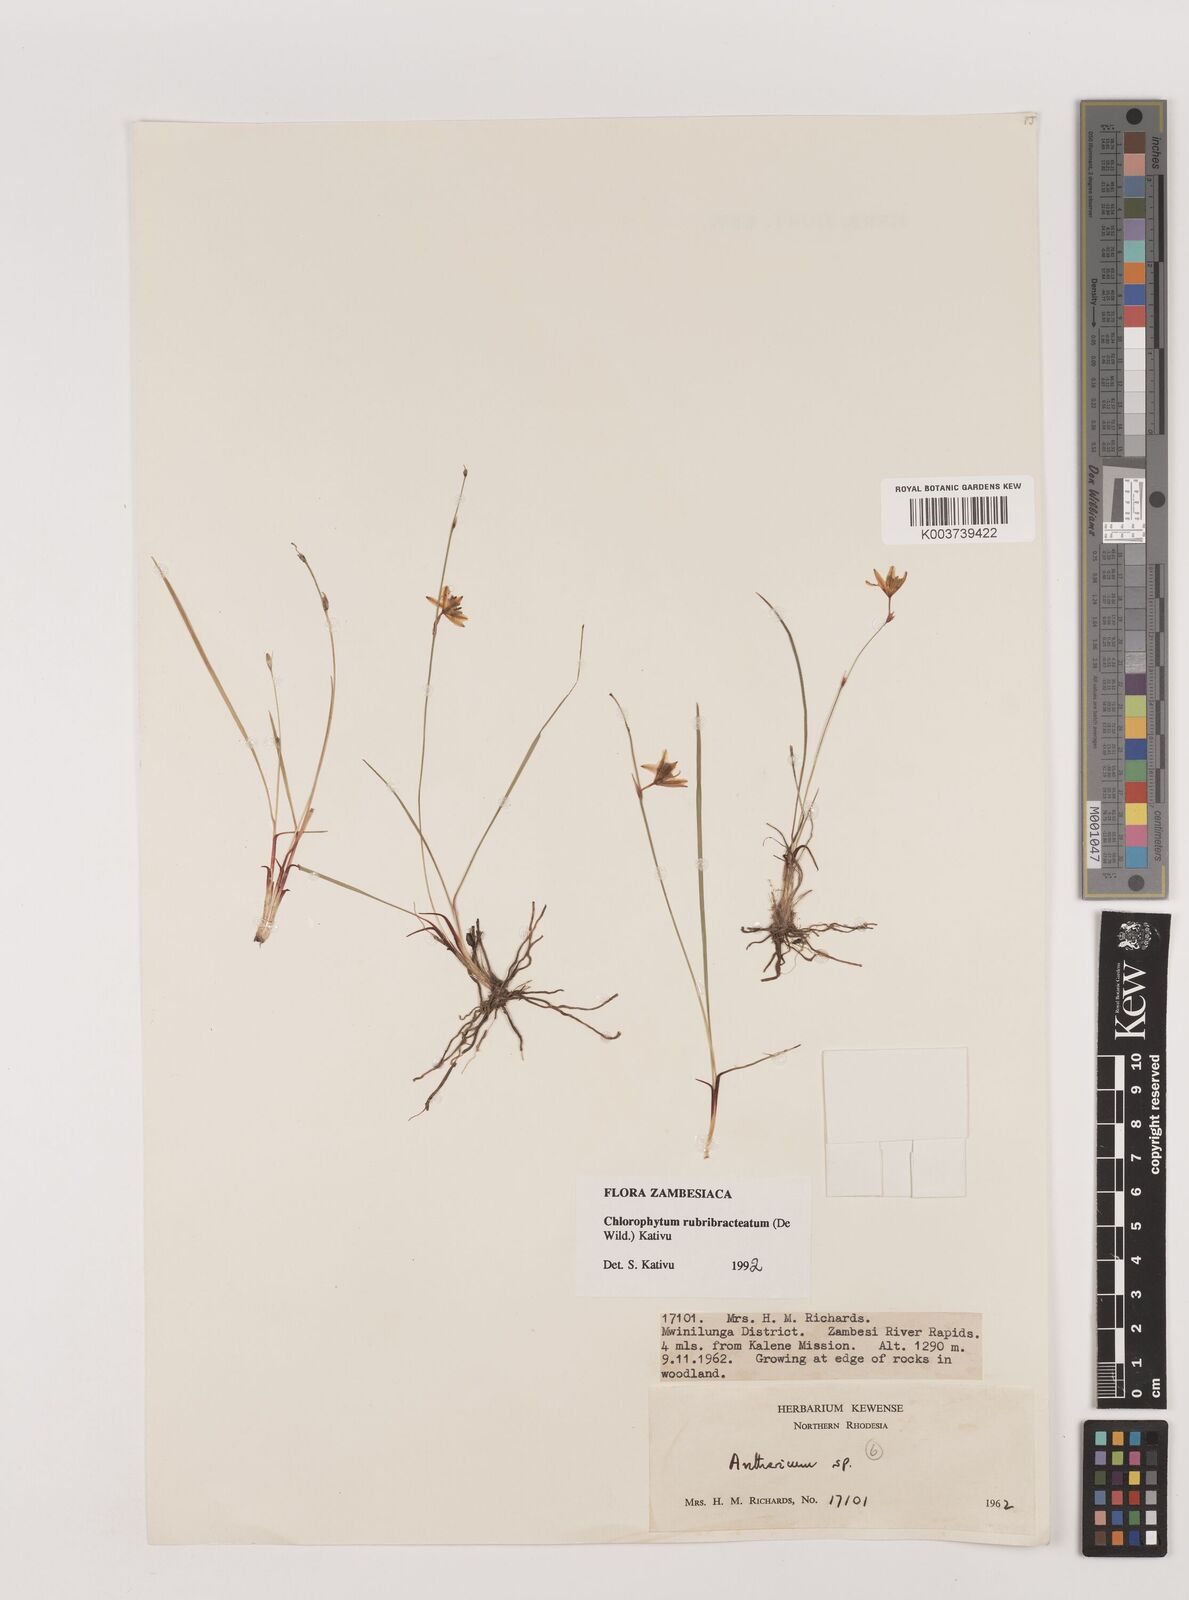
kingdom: Plantae
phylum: Tracheophyta
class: Liliopsida
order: Asparagales
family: Asparagaceae
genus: Chlorophytum
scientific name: Chlorophytum rubribracteatum
